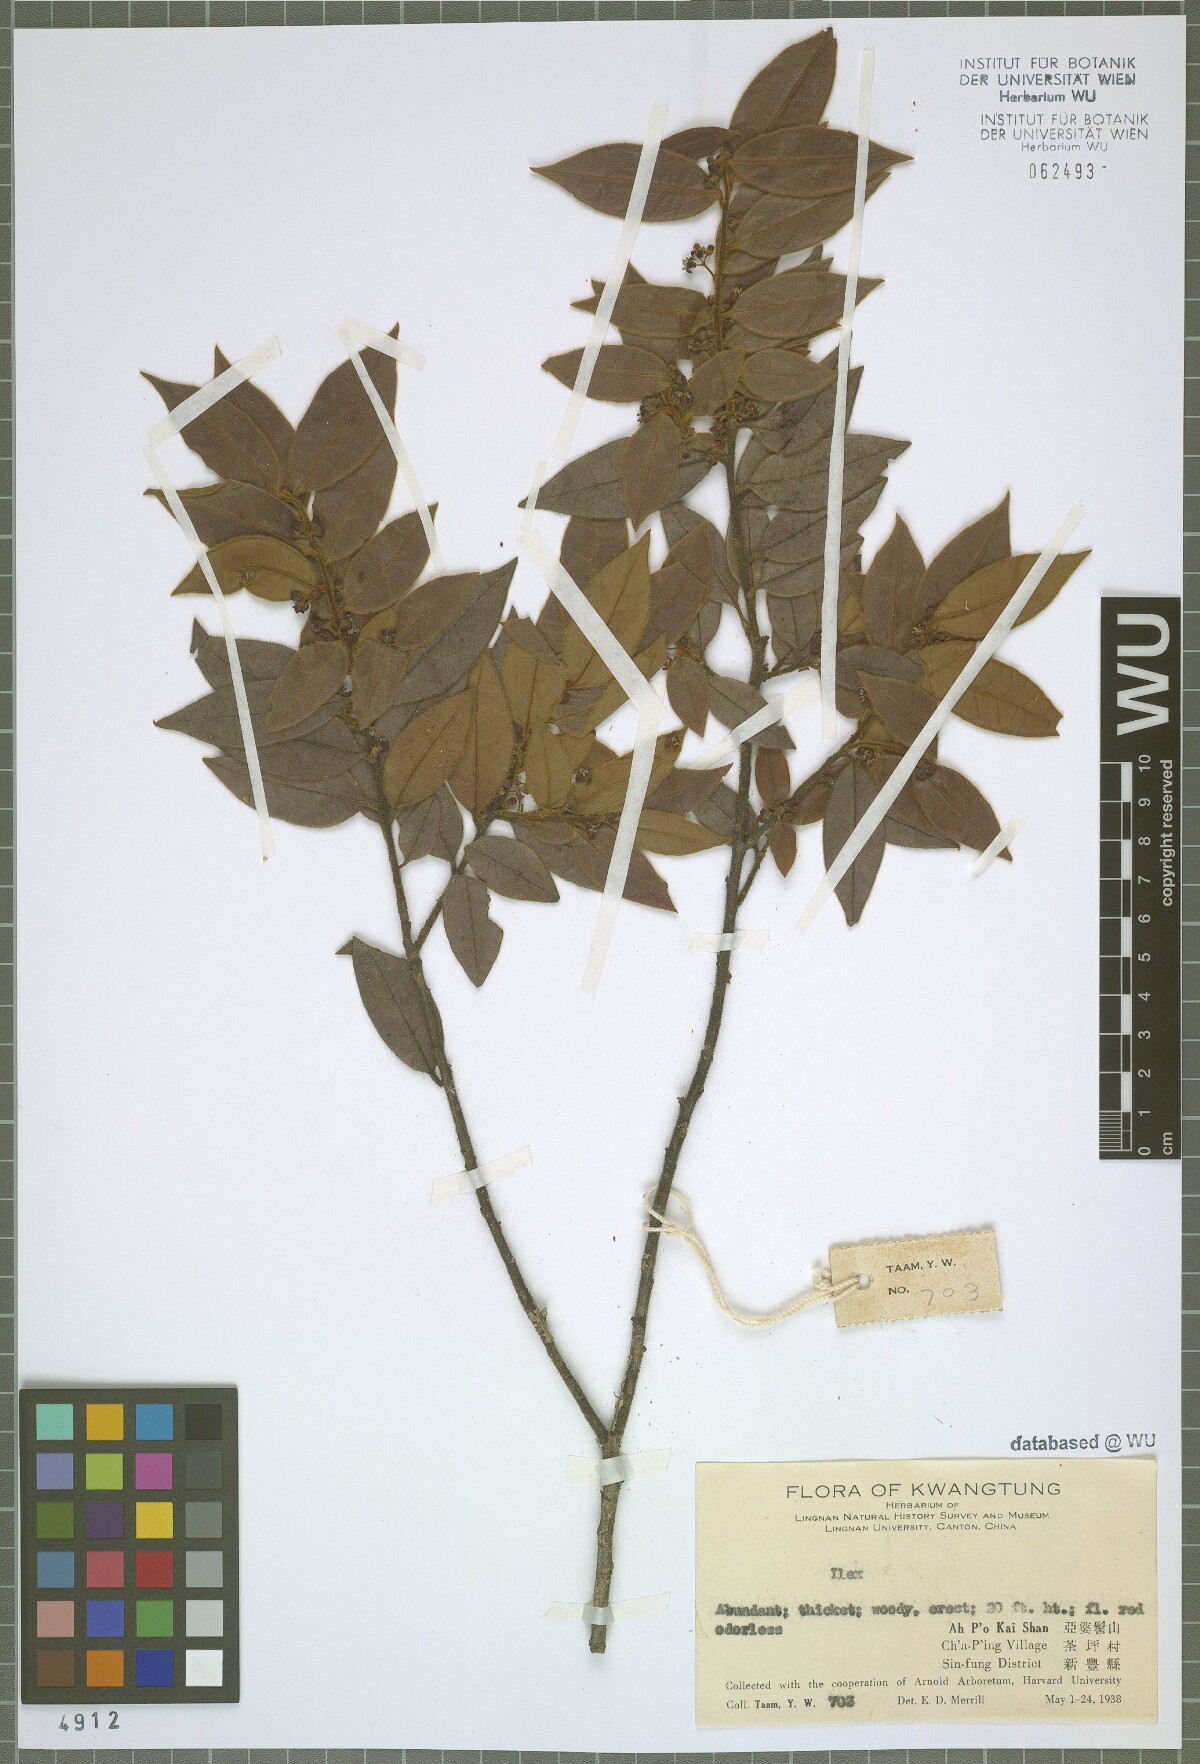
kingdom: Plantae
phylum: Tracheophyta
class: Magnoliopsida
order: Aquifoliales
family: Aquifoliaceae
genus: Ilex
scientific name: Ilex
